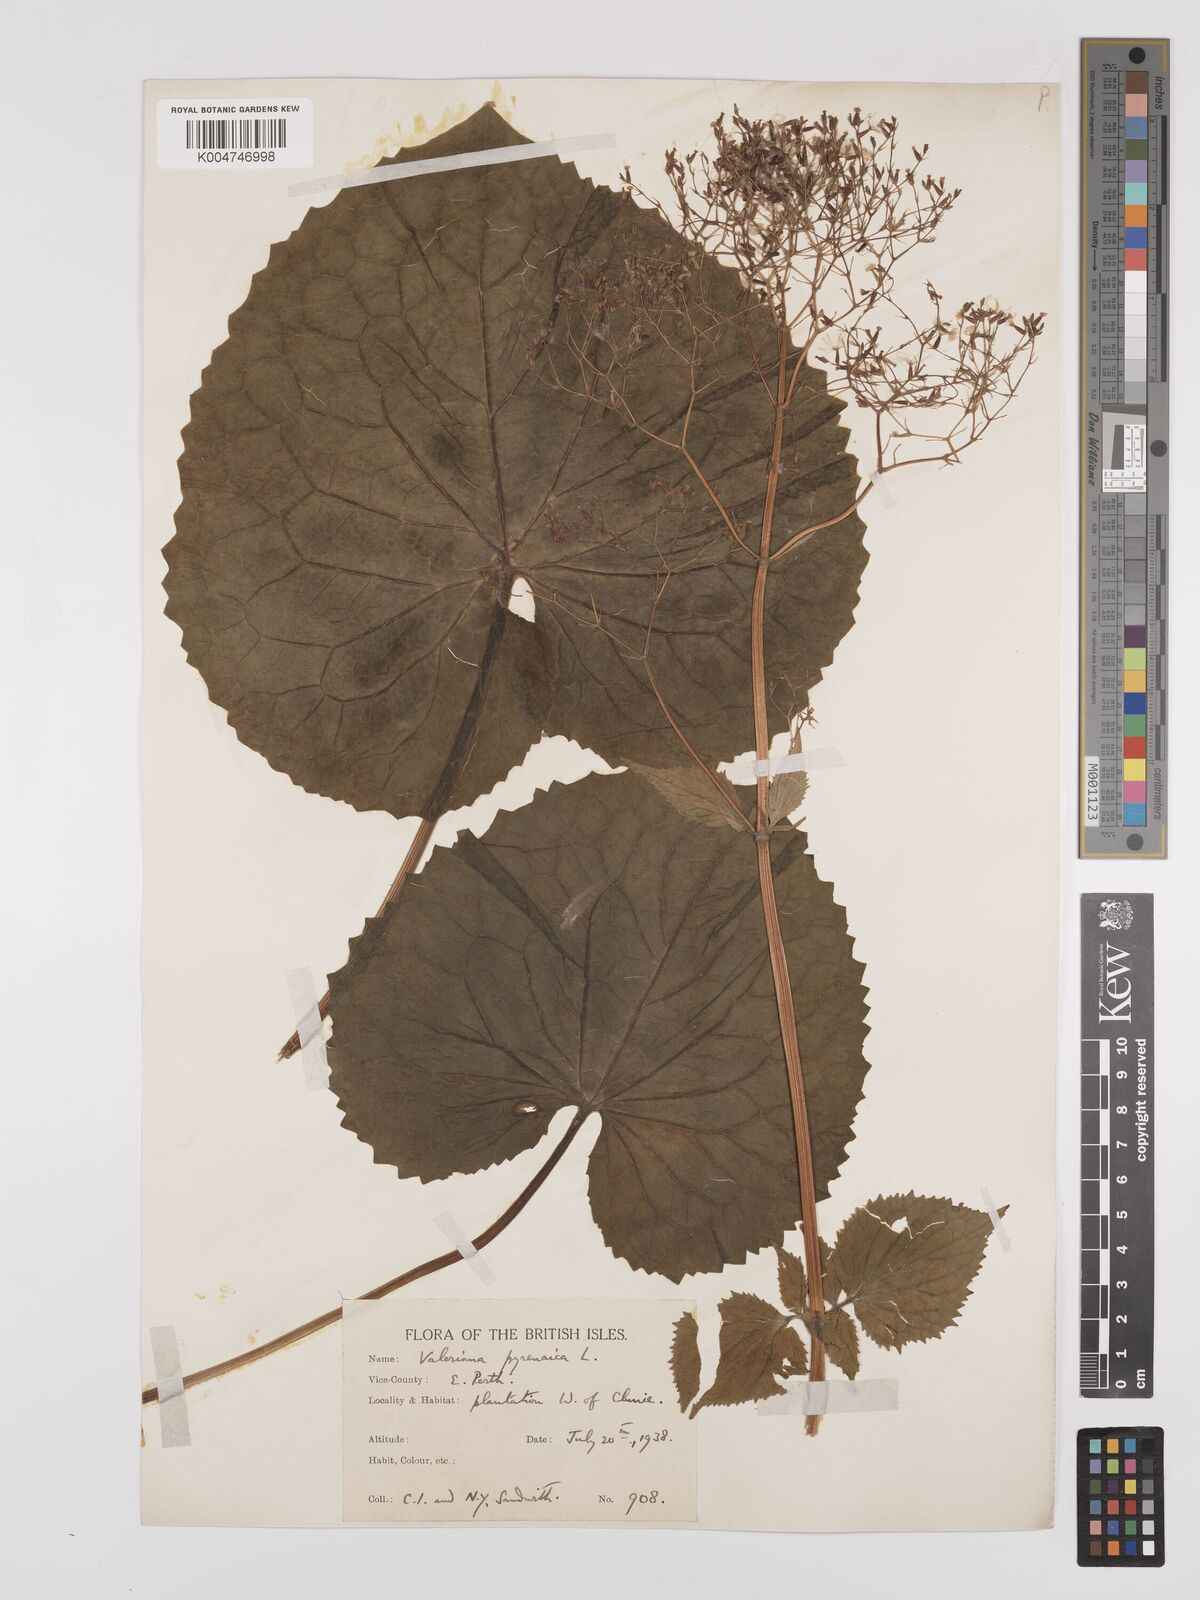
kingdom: Plantae
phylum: Tracheophyta
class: Magnoliopsida
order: Dipsacales
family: Caprifoliaceae
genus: Valeriana
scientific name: Valeriana pyrenaica
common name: Pyrenean valerian
